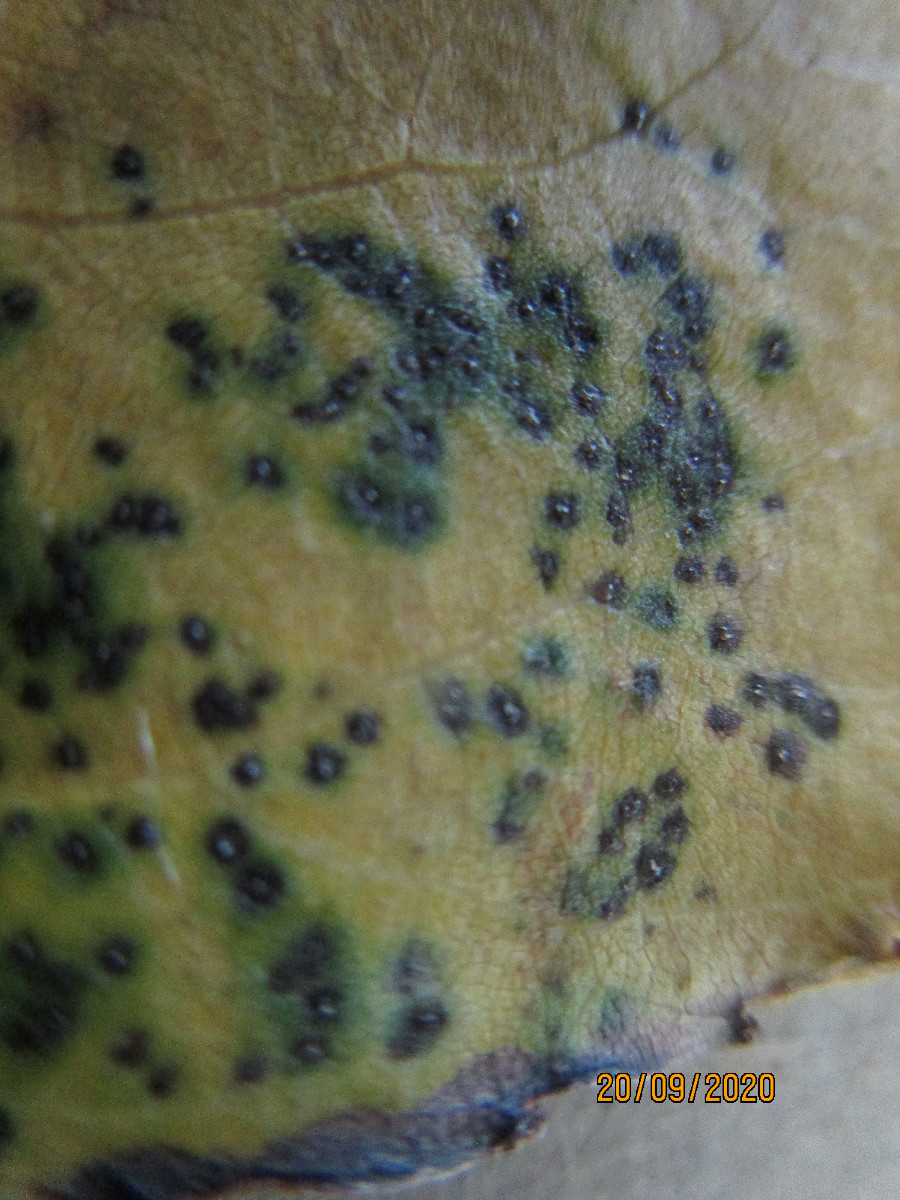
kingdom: Fungi
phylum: Ascomycota
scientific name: Ascomycota
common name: sæksvampe
